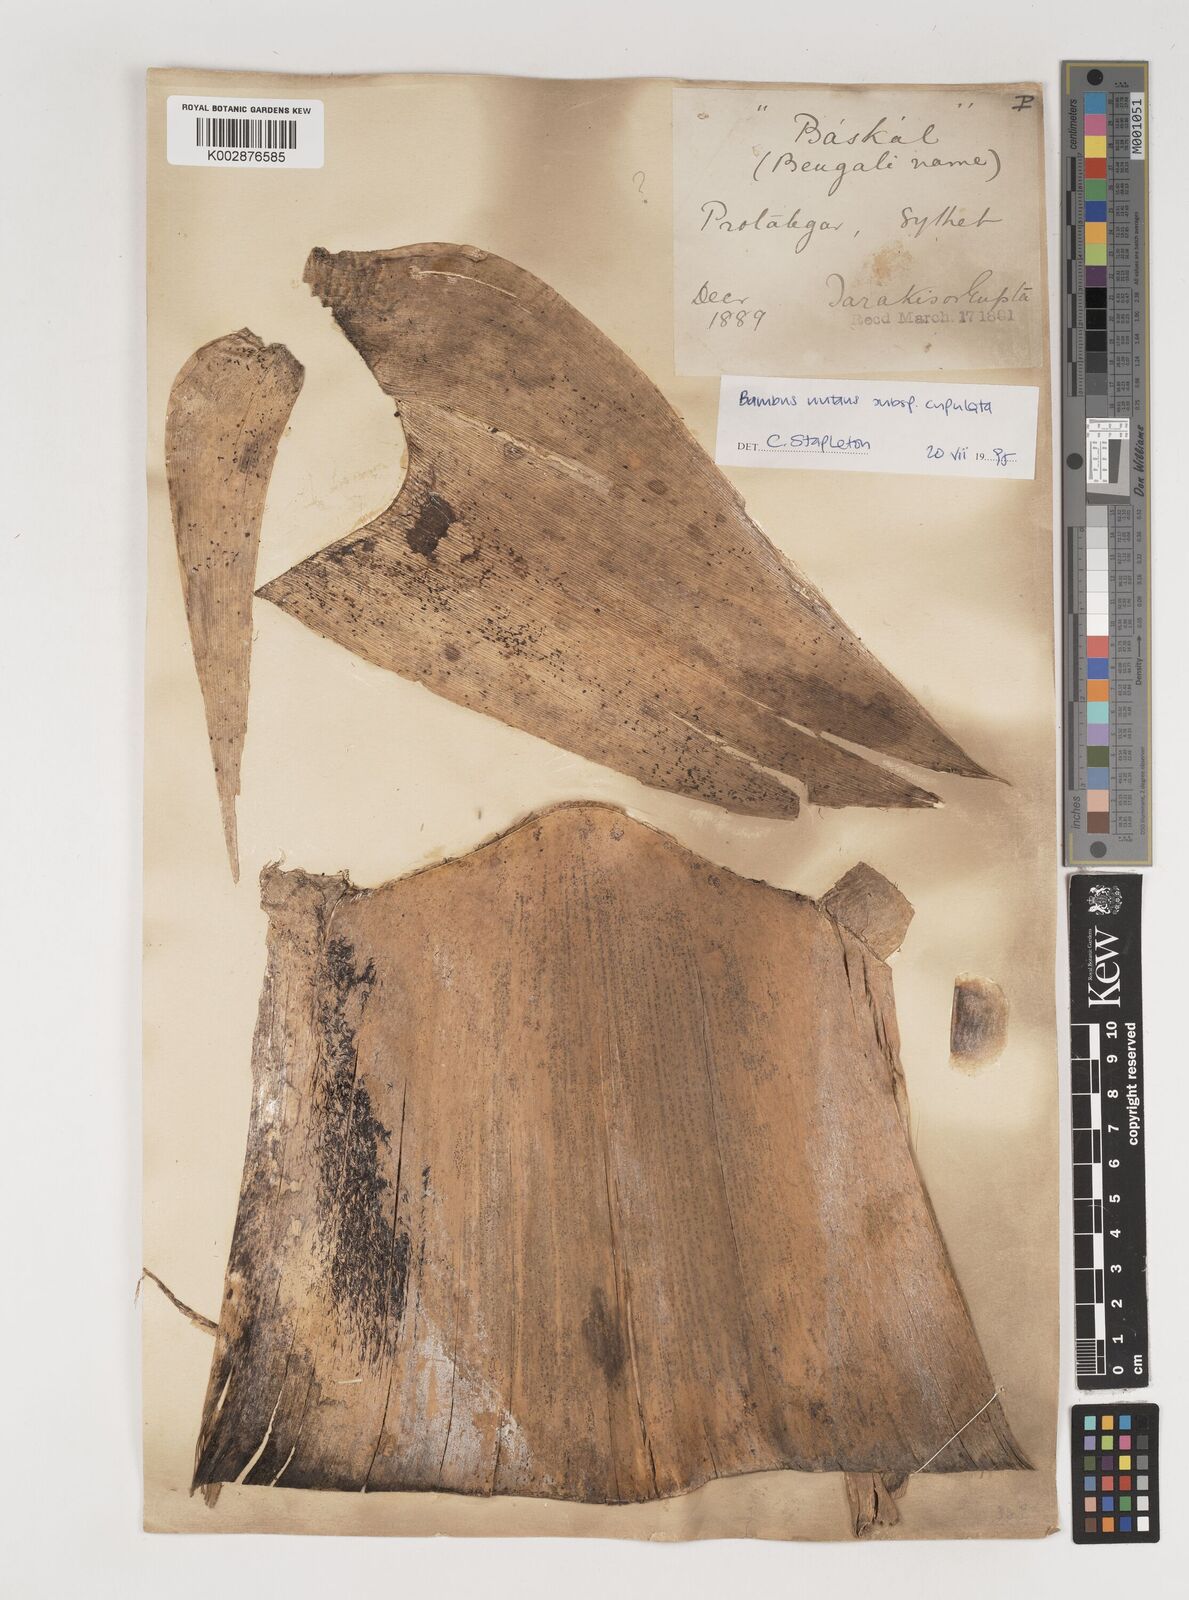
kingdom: Plantae
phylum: Tracheophyta
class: Liliopsida
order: Poales
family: Poaceae
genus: Bambusa
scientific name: Bambusa nutans
